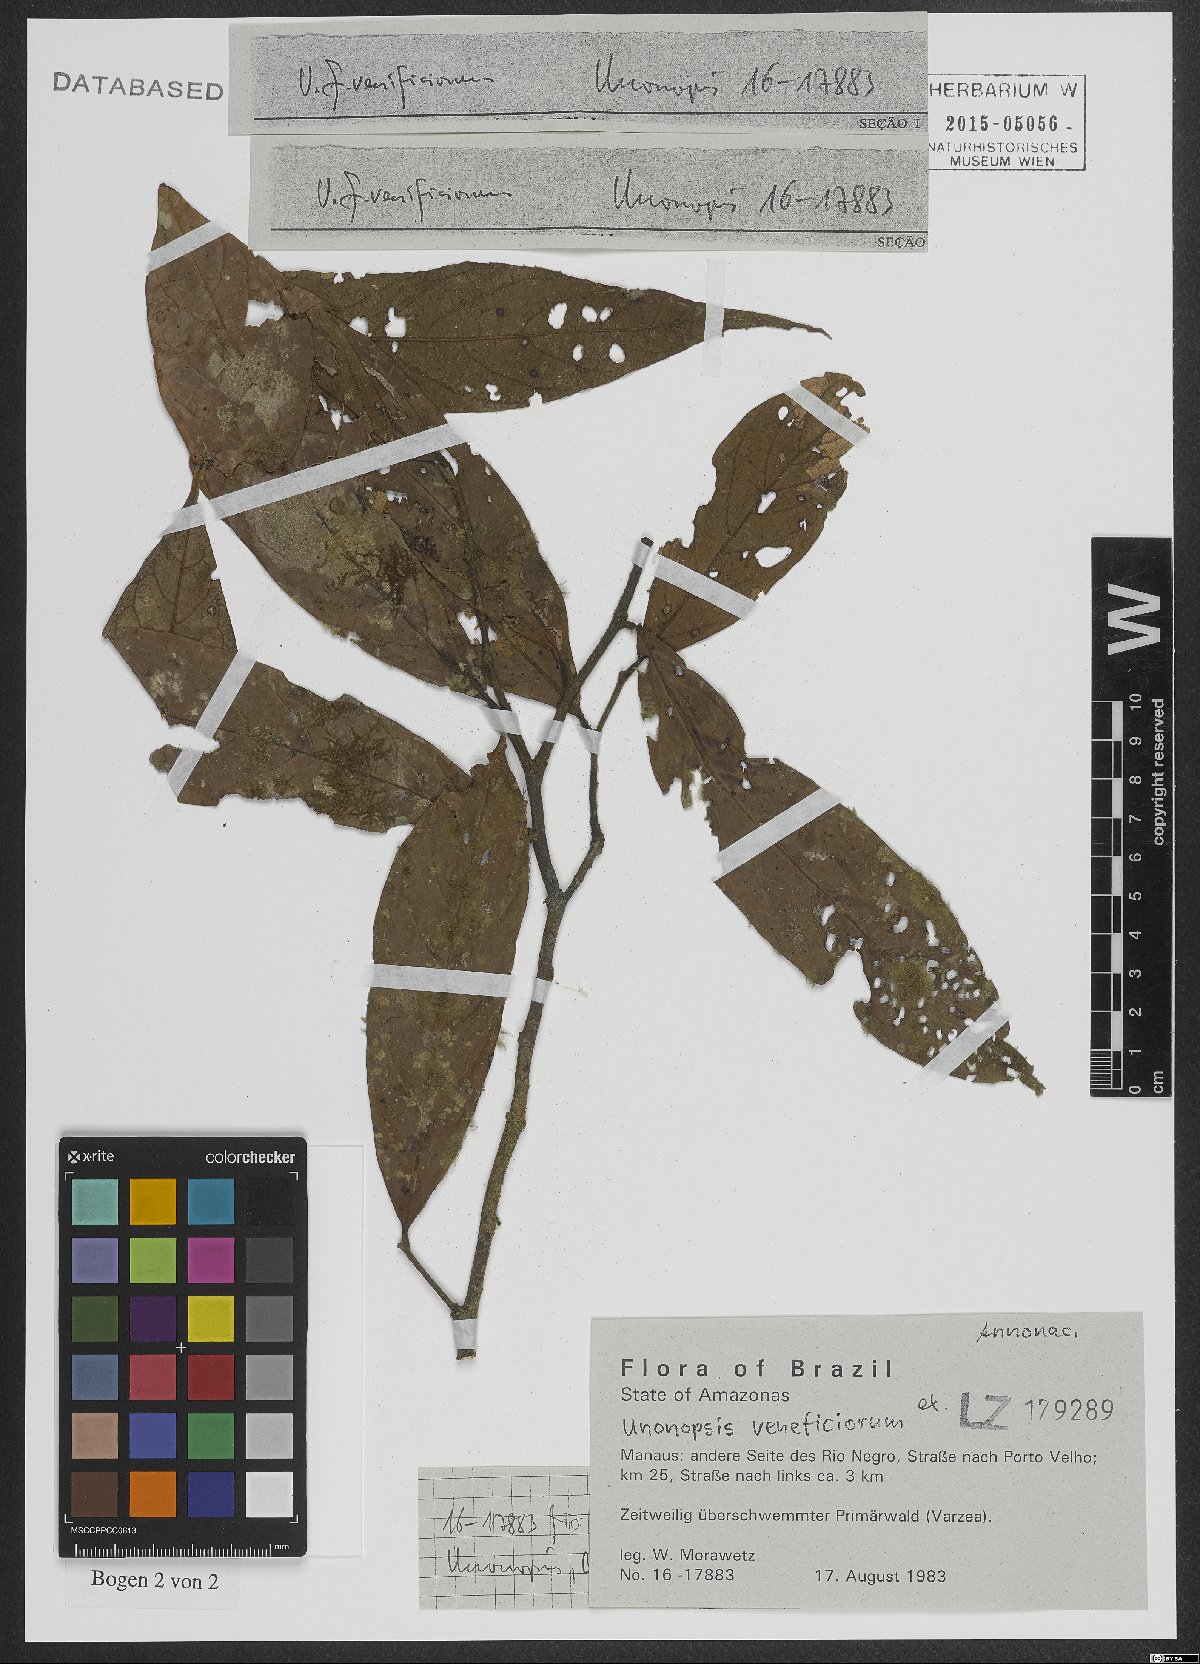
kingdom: Plantae
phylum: Tracheophyta
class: Magnoliopsida
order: Magnoliales
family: Annonaceae
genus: Unonopsis
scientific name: Unonopsis veneficiorum
